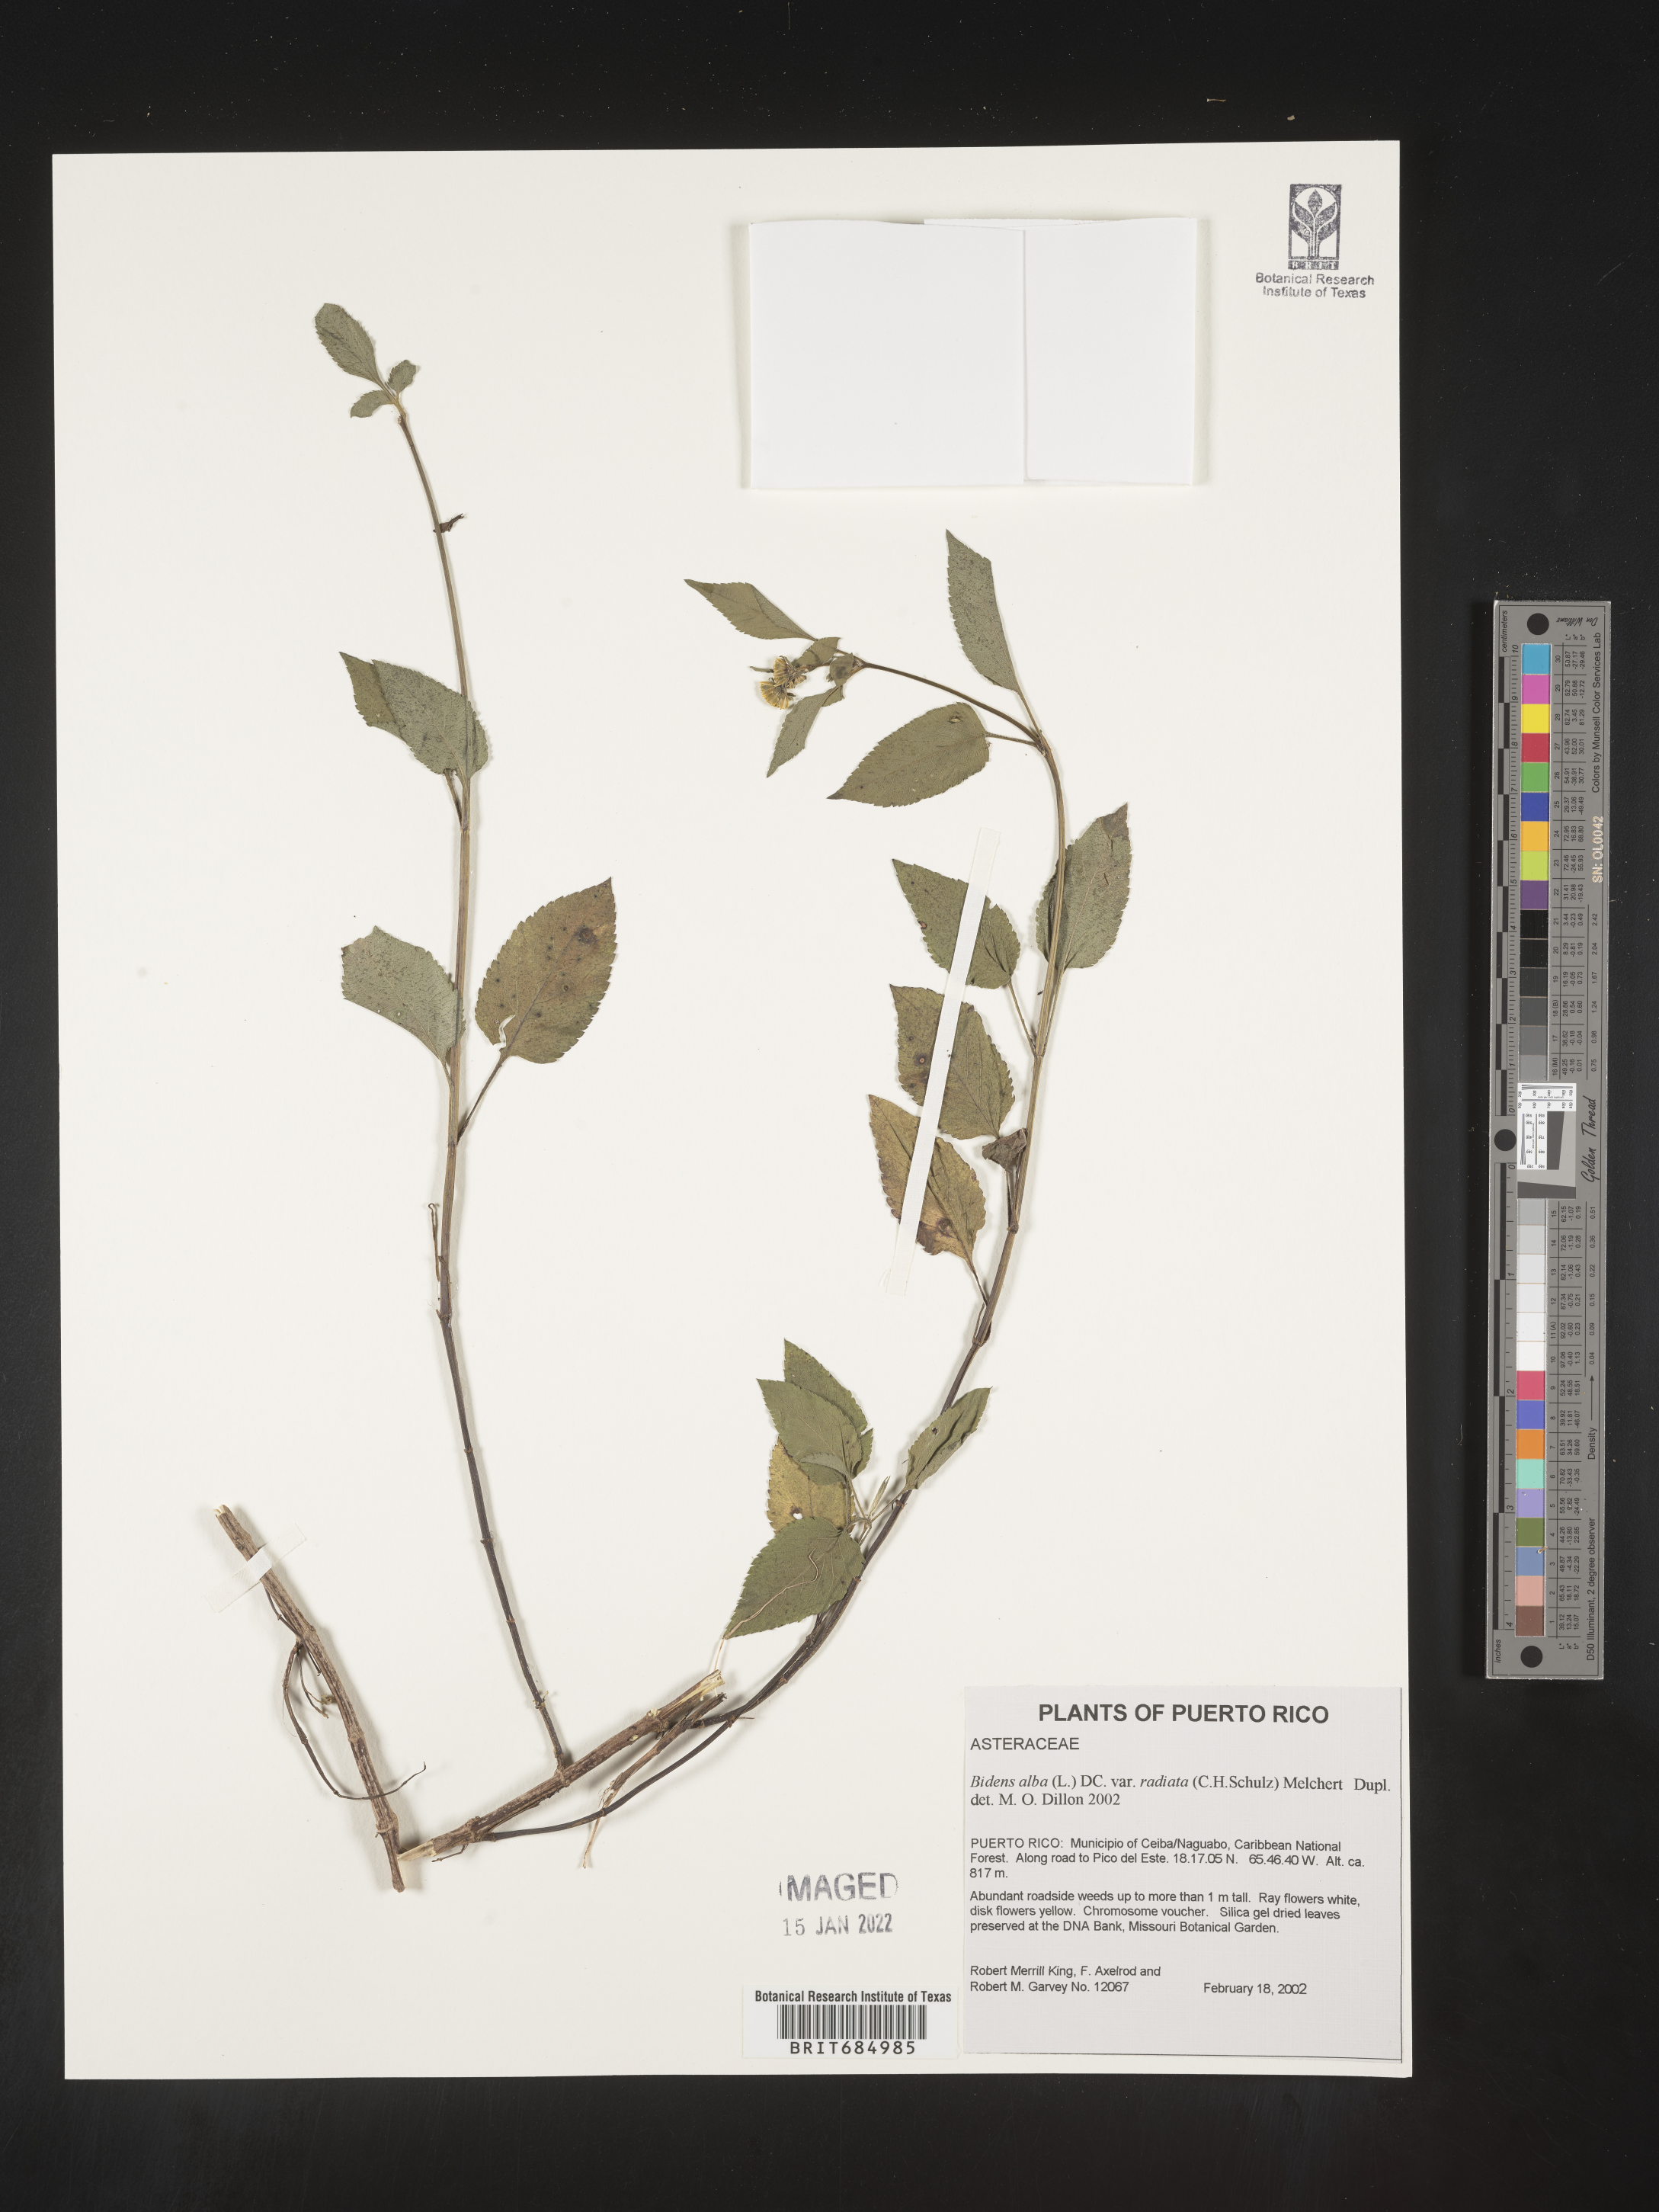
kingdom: Plantae
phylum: Tracheophyta
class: Magnoliopsida
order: Asterales
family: Asteraceae
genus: Bidens
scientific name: Bidens
